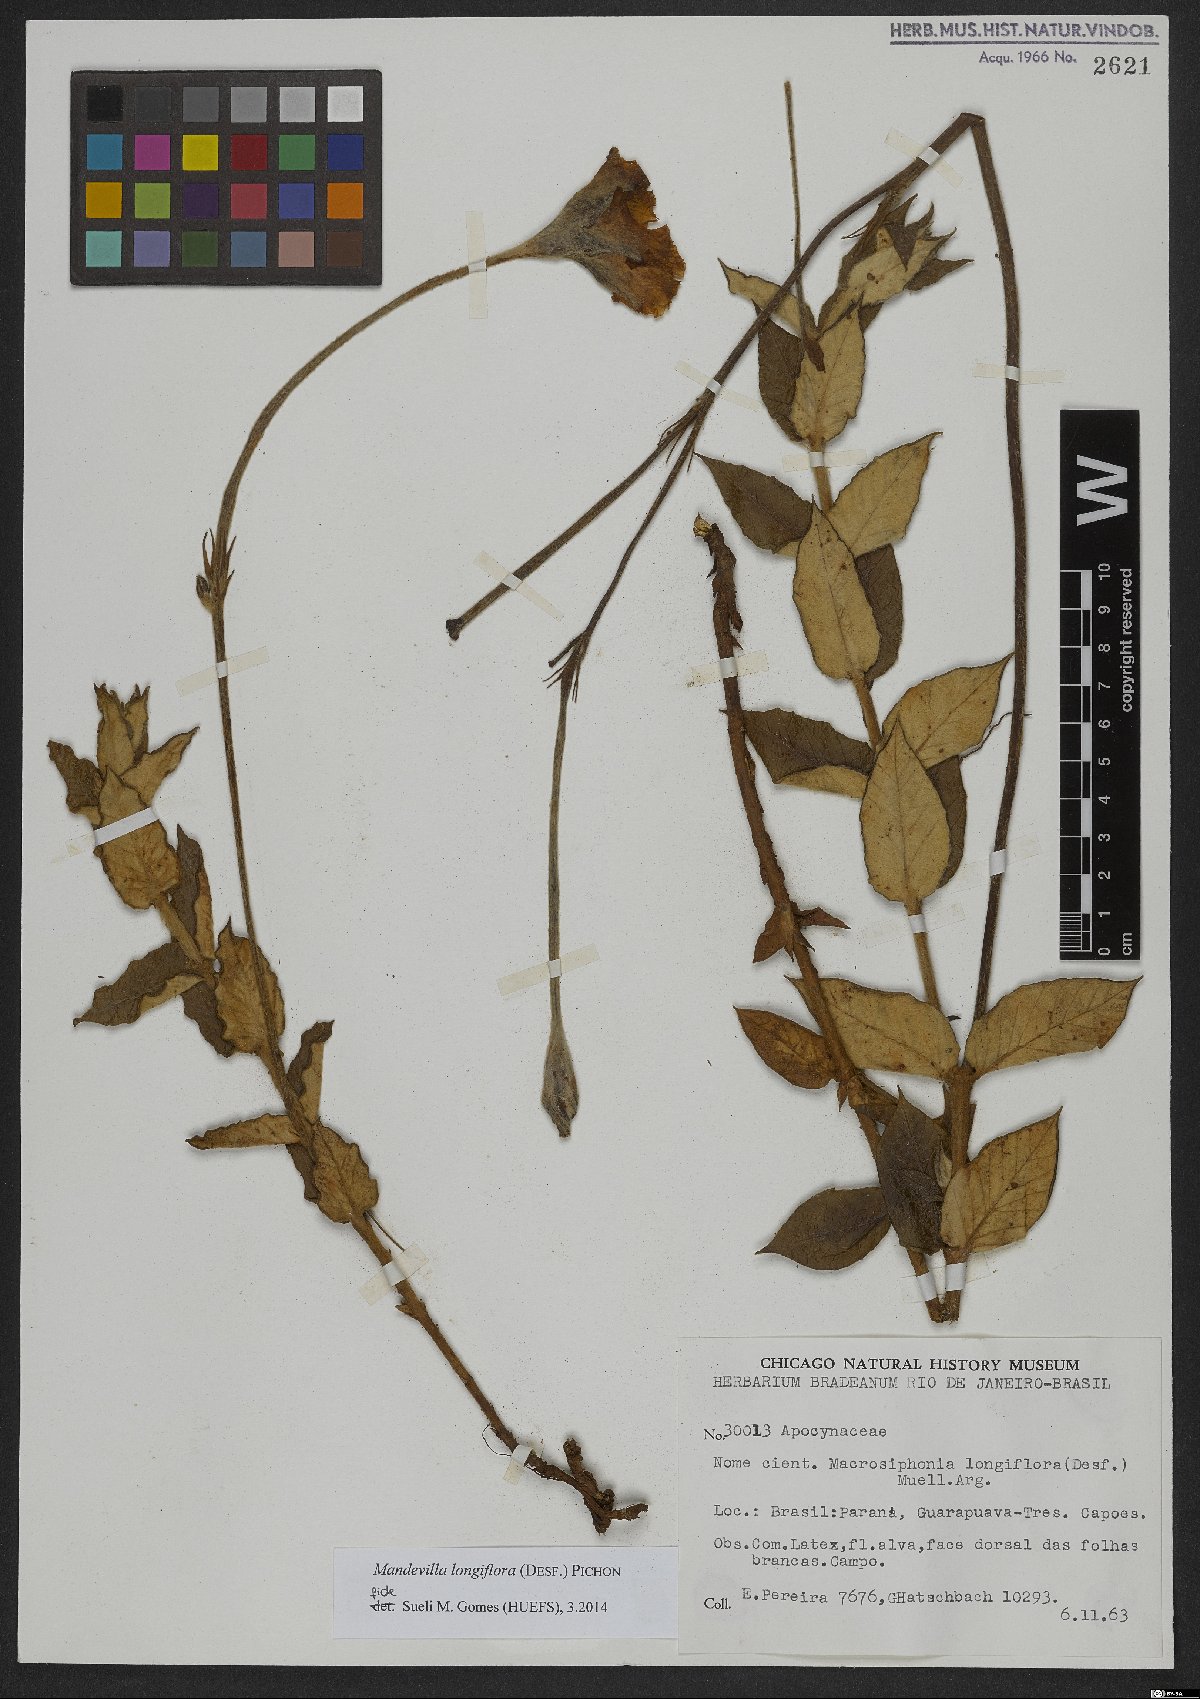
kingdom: Plantae
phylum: Tracheophyta
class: Magnoliopsida
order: Gentianales
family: Apocynaceae
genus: Mandevilla
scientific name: Mandevilla longiflora
